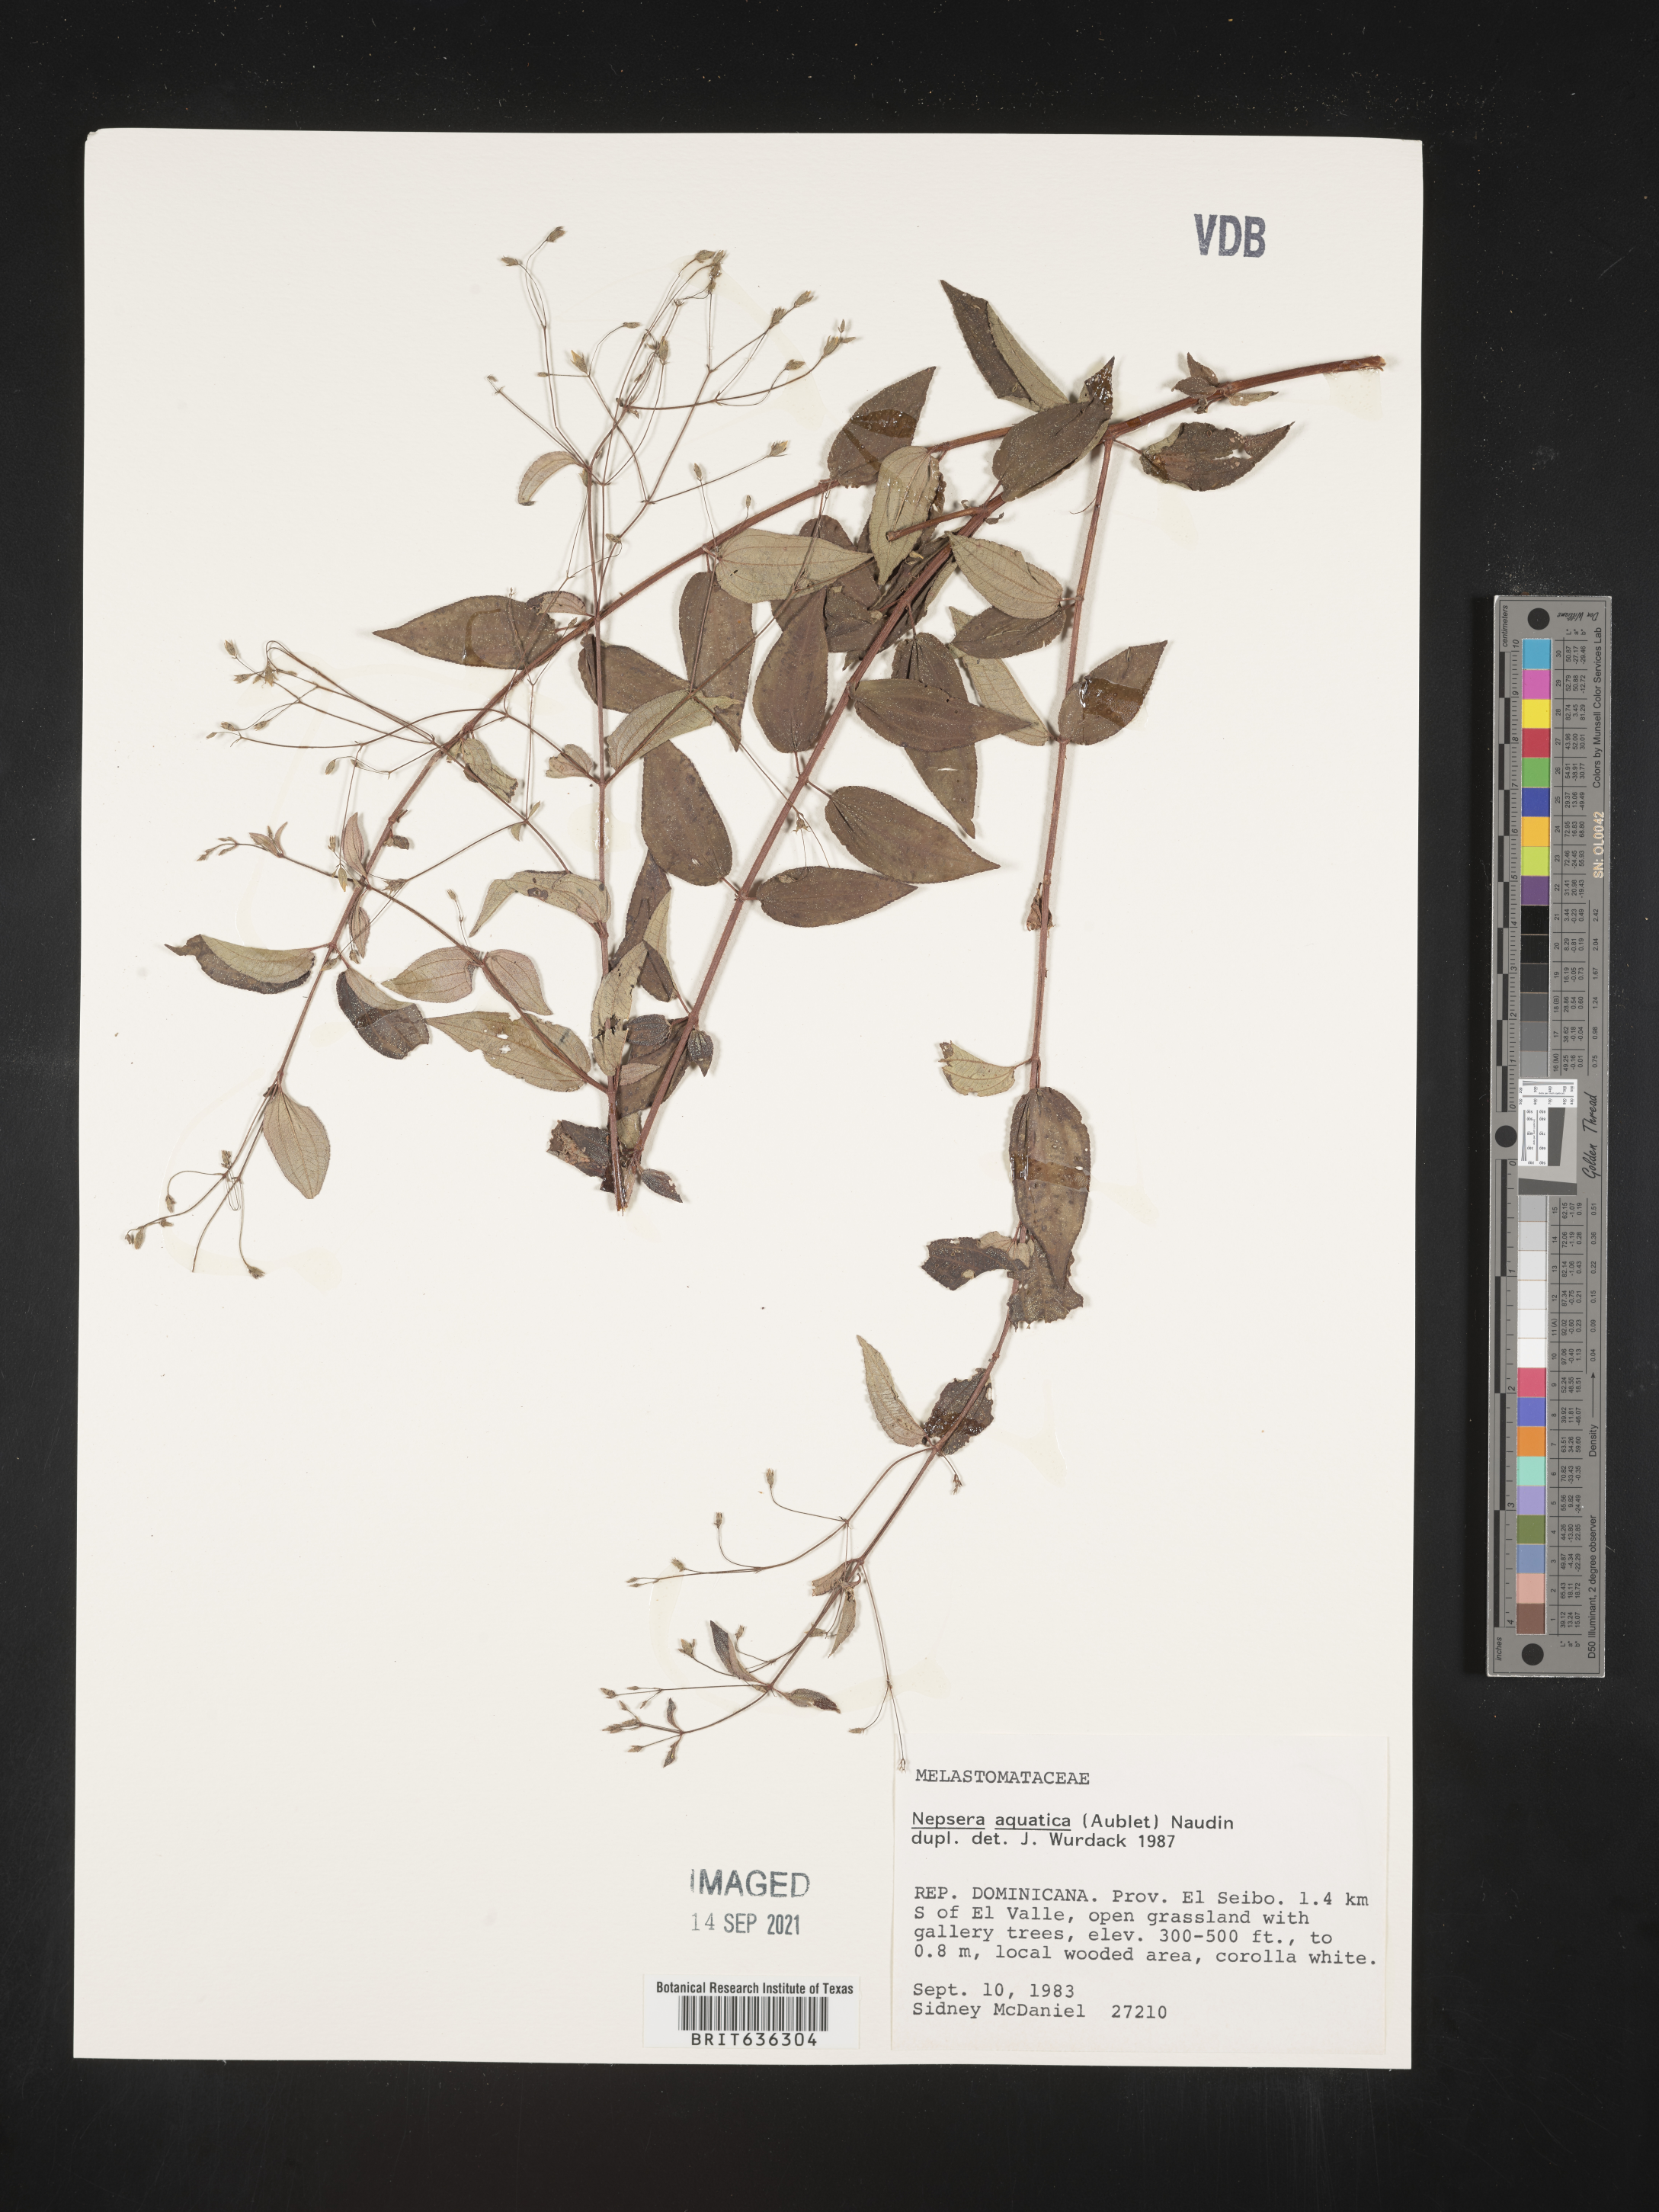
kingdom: Plantae
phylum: Tracheophyta
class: Magnoliopsida
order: Myrtales
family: Melastomataceae
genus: Nepsera
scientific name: Nepsera
